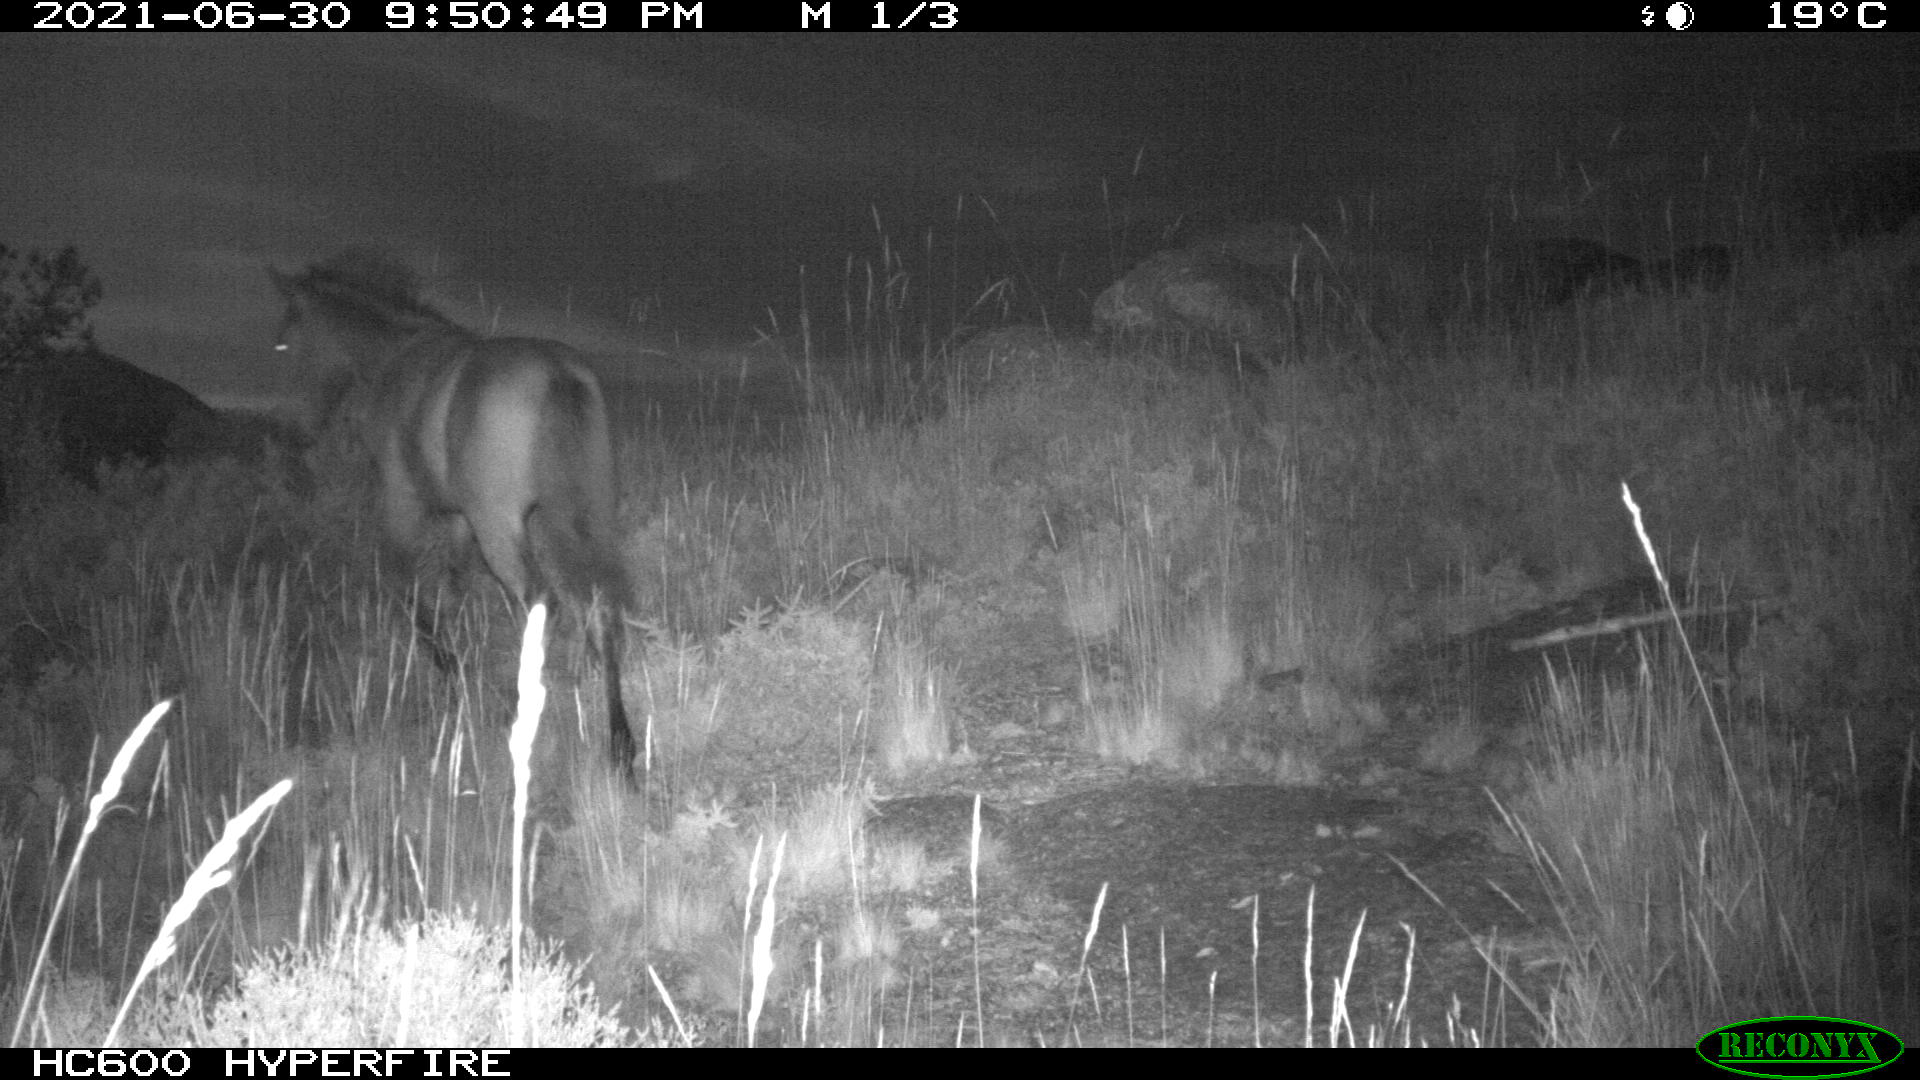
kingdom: Animalia
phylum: Chordata
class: Mammalia
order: Perissodactyla
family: Equidae
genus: Equus
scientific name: Equus caballus
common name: Horse
